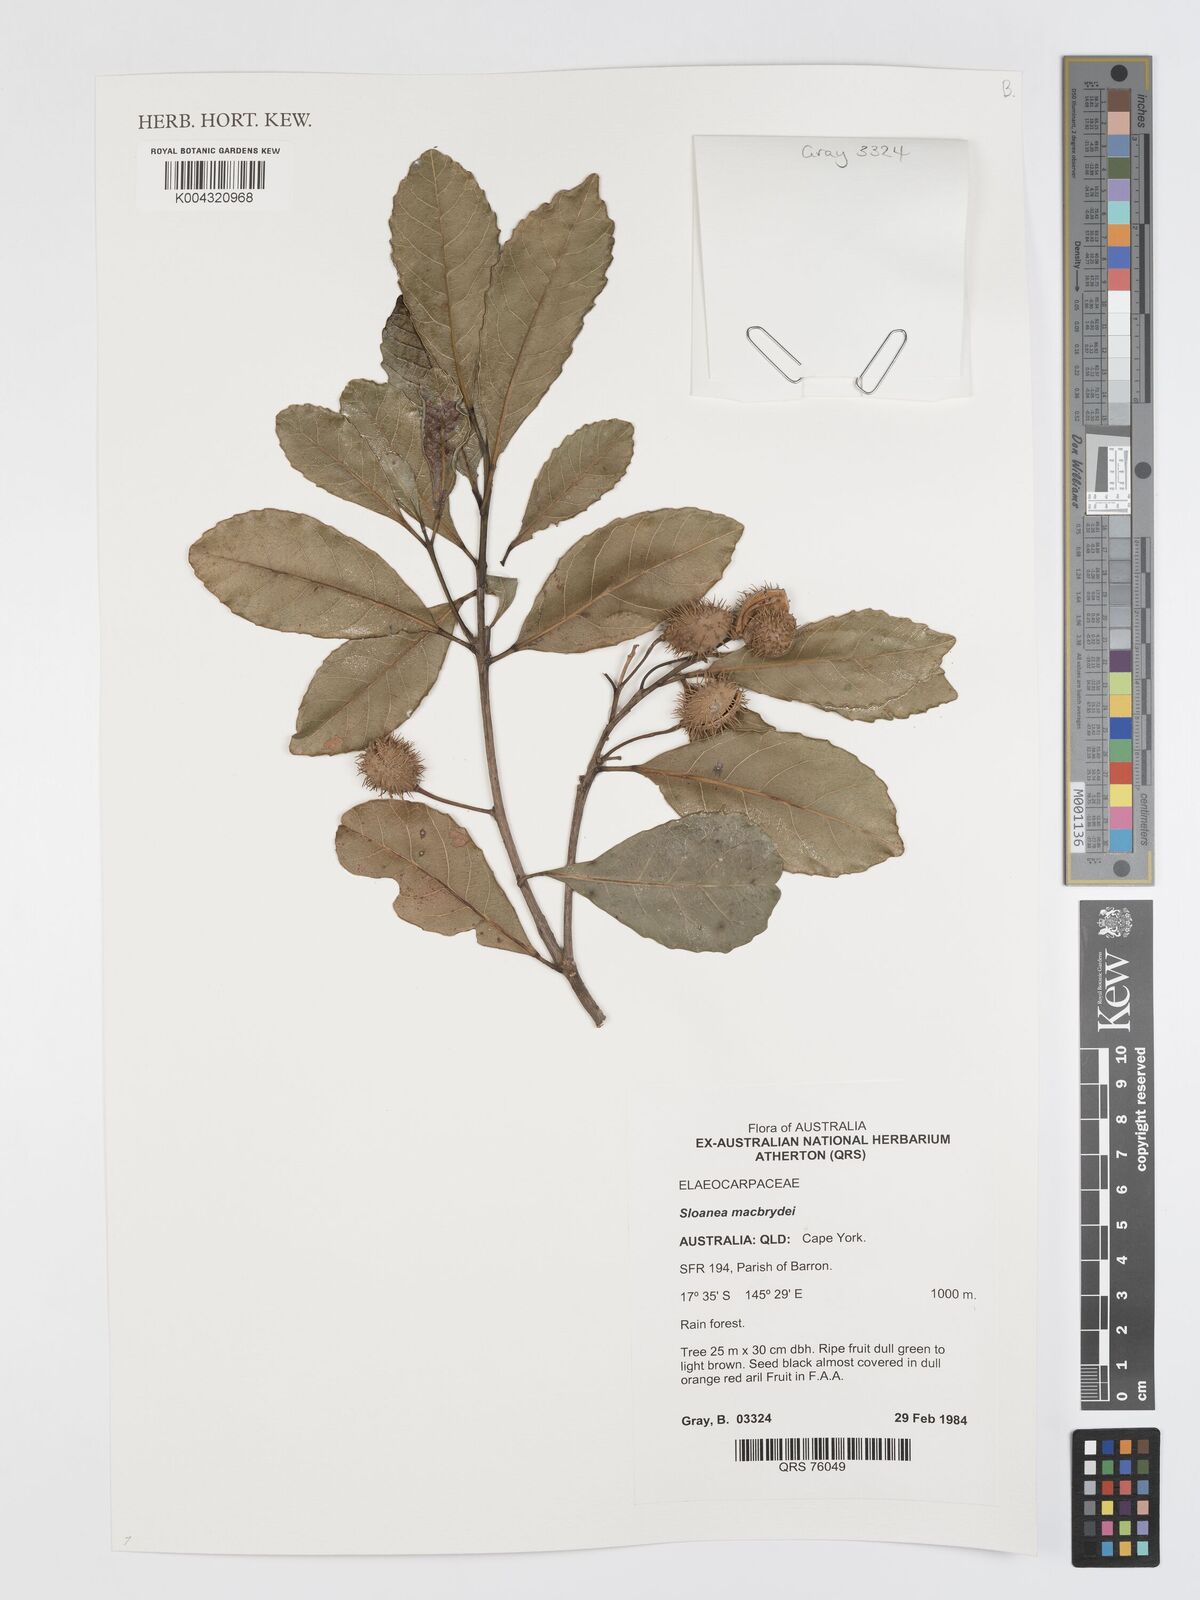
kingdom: Plantae
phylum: Tracheophyta
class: Magnoliopsida
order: Oxalidales
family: Elaeocarpaceae
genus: Sloanea
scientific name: Sloanea macbrydei
